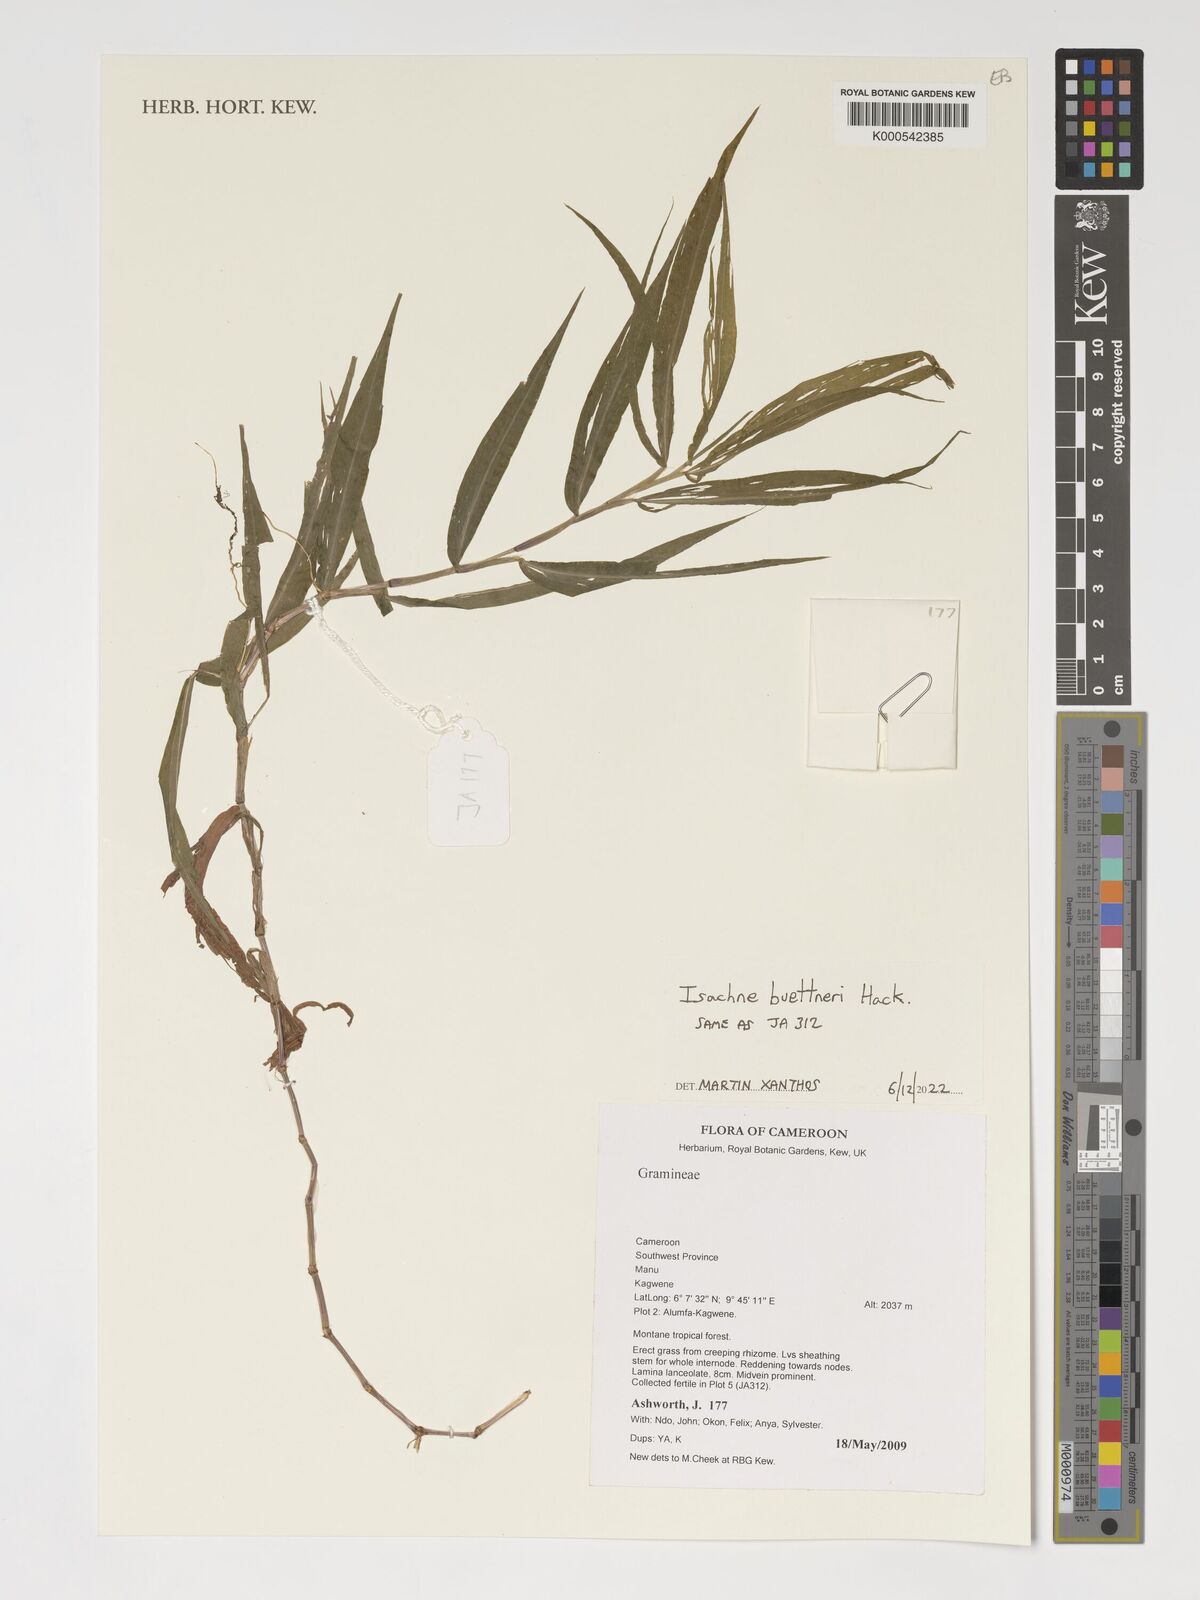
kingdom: Plantae
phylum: Tracheophyta
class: Liliopsida
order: Poales
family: Poaceae
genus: Isachne
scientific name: Isachne albens
